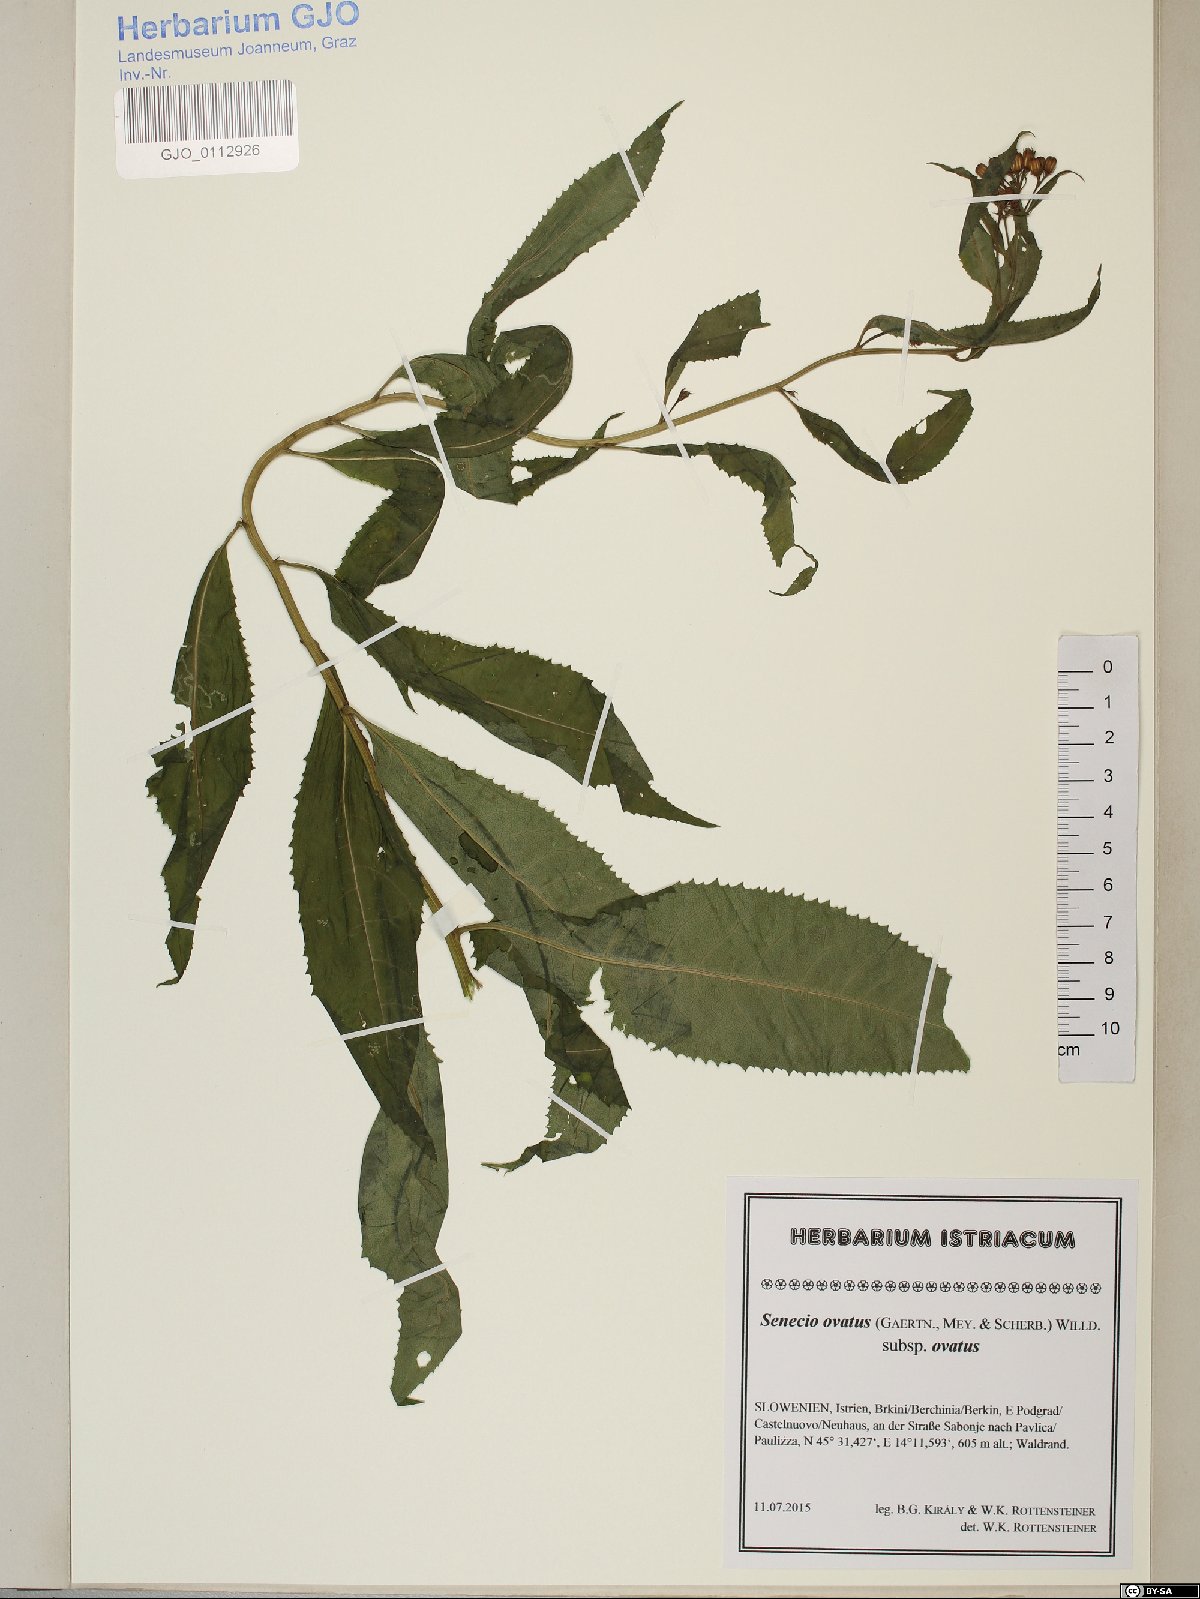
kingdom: Plantae
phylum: Tracheophyta
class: Magnoliopsida
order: Asterales
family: Asteraceae
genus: Senecio
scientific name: Senecio ovatus
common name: Wood ragwort
